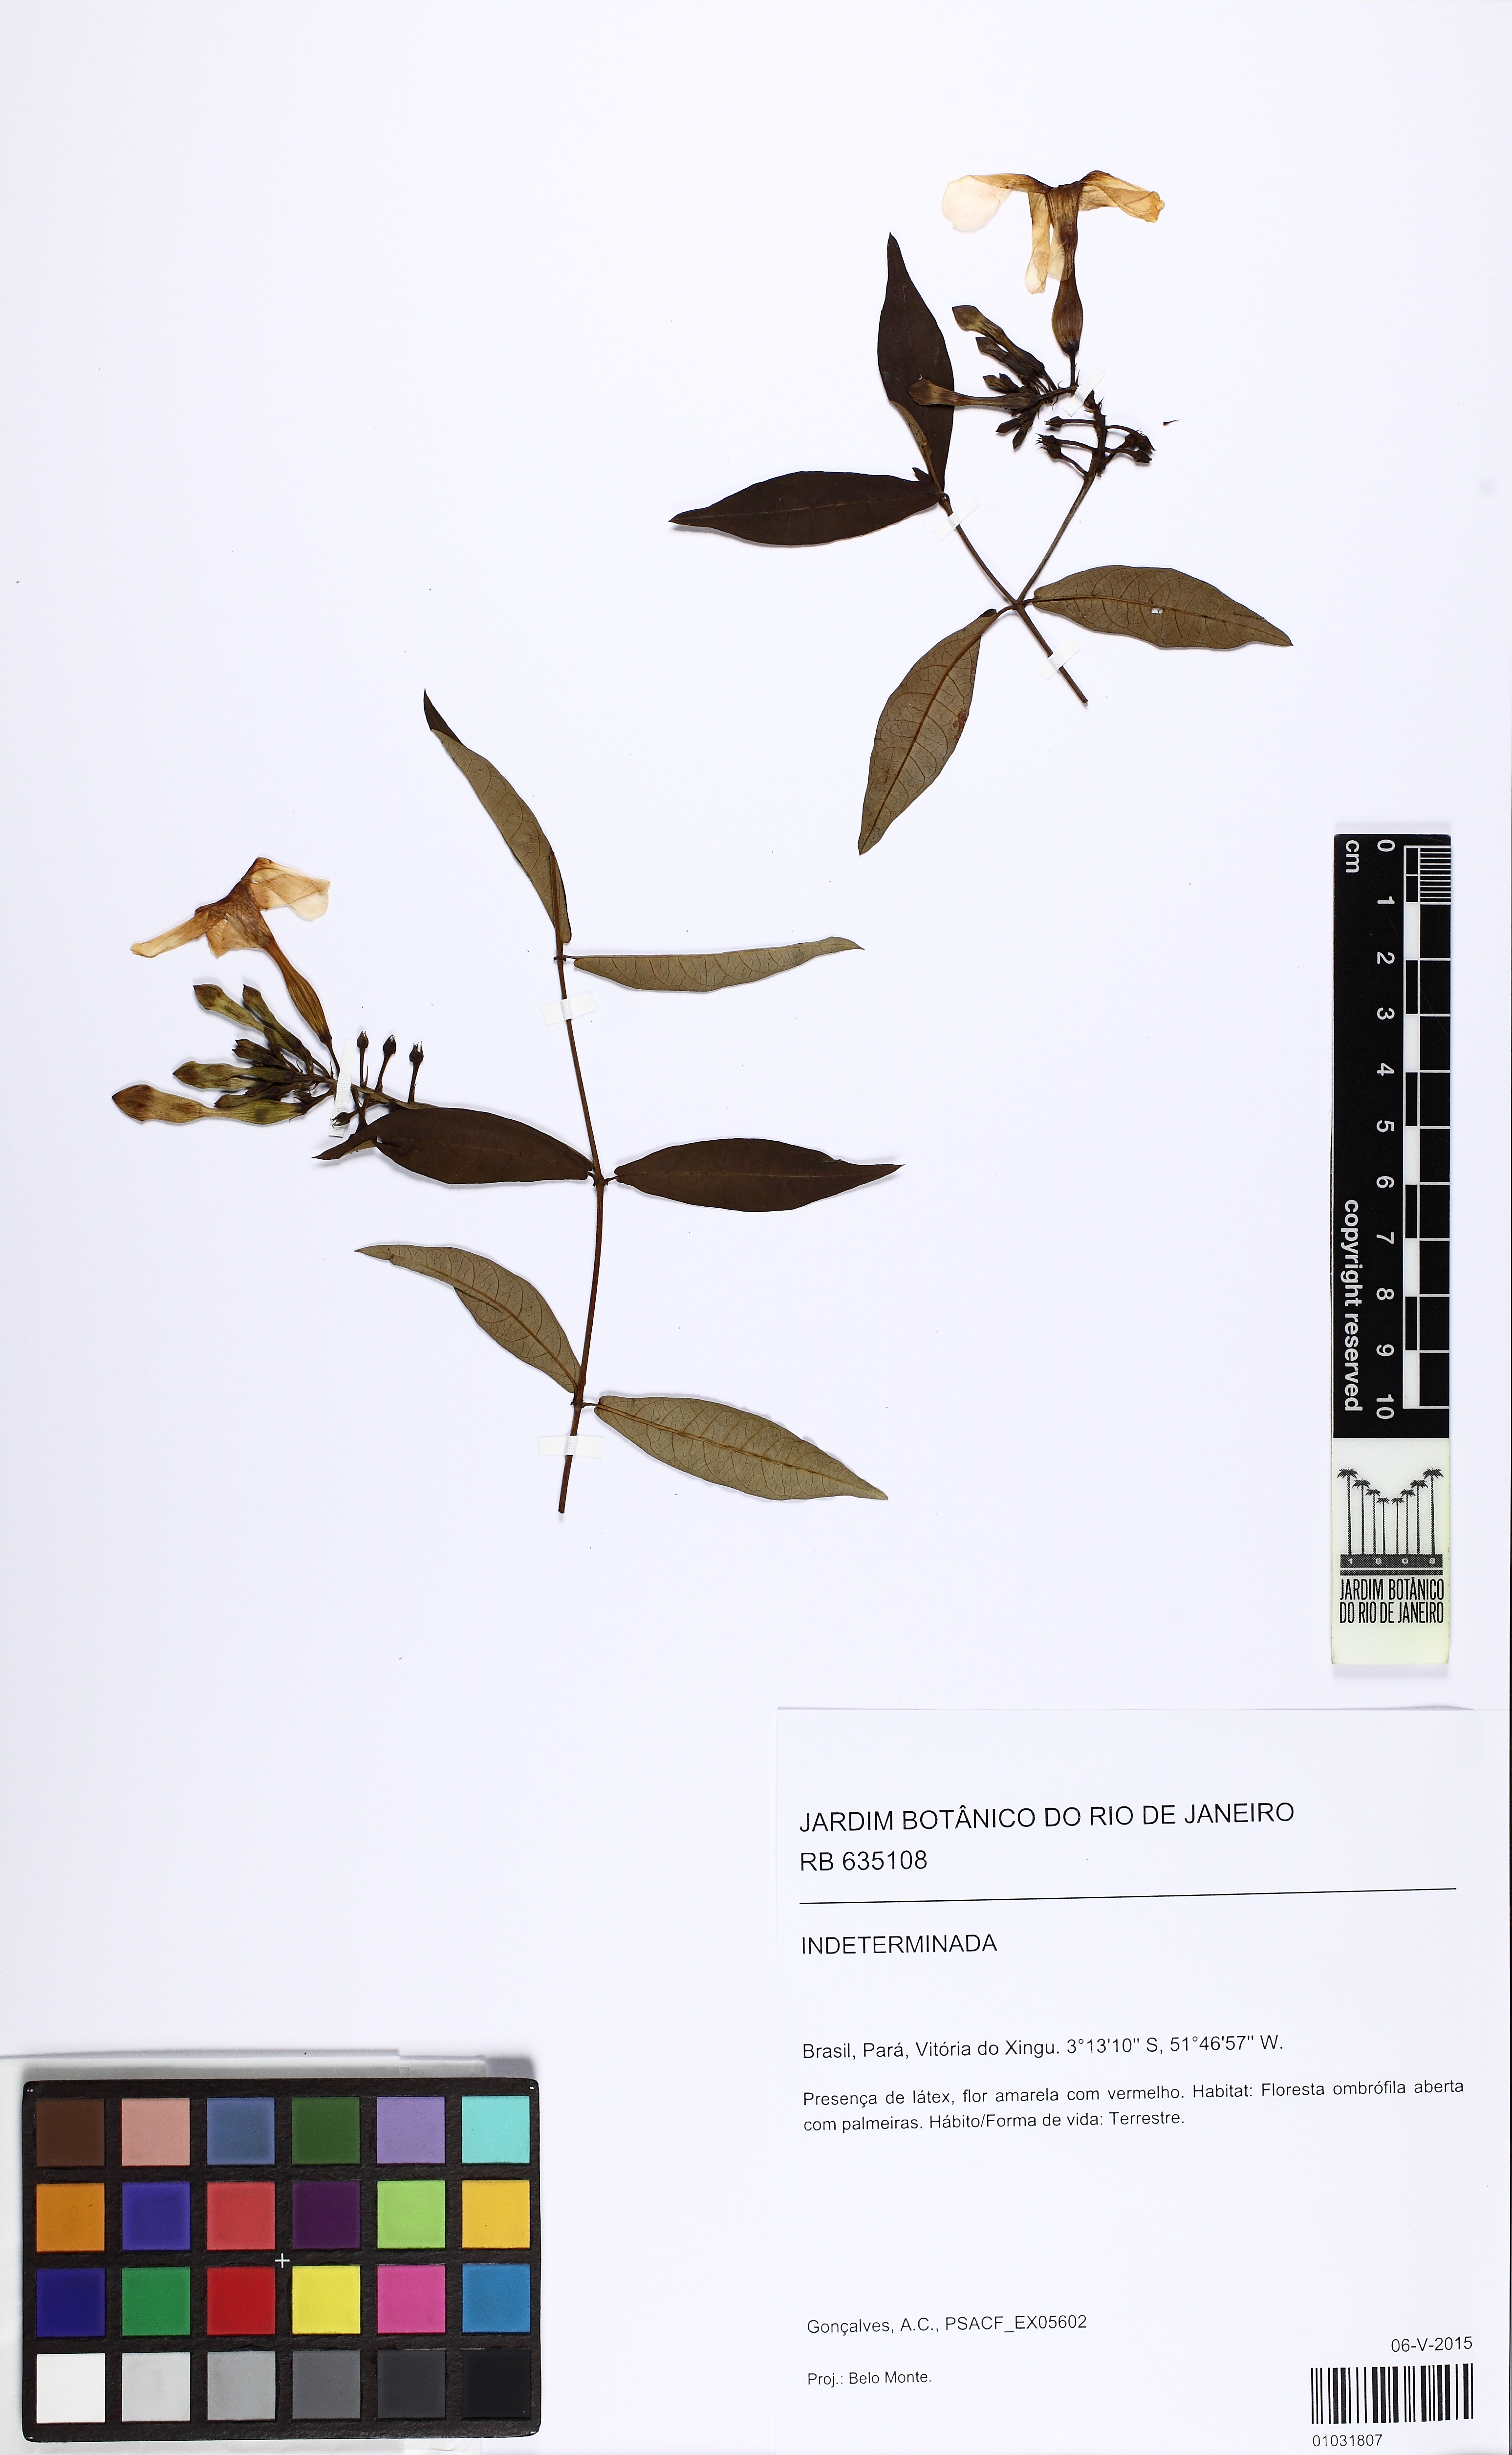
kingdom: Plantae
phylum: Tracheophyta
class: Magnoliopsida
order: Gentianales
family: Apocynaceae
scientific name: Apocynaceae
